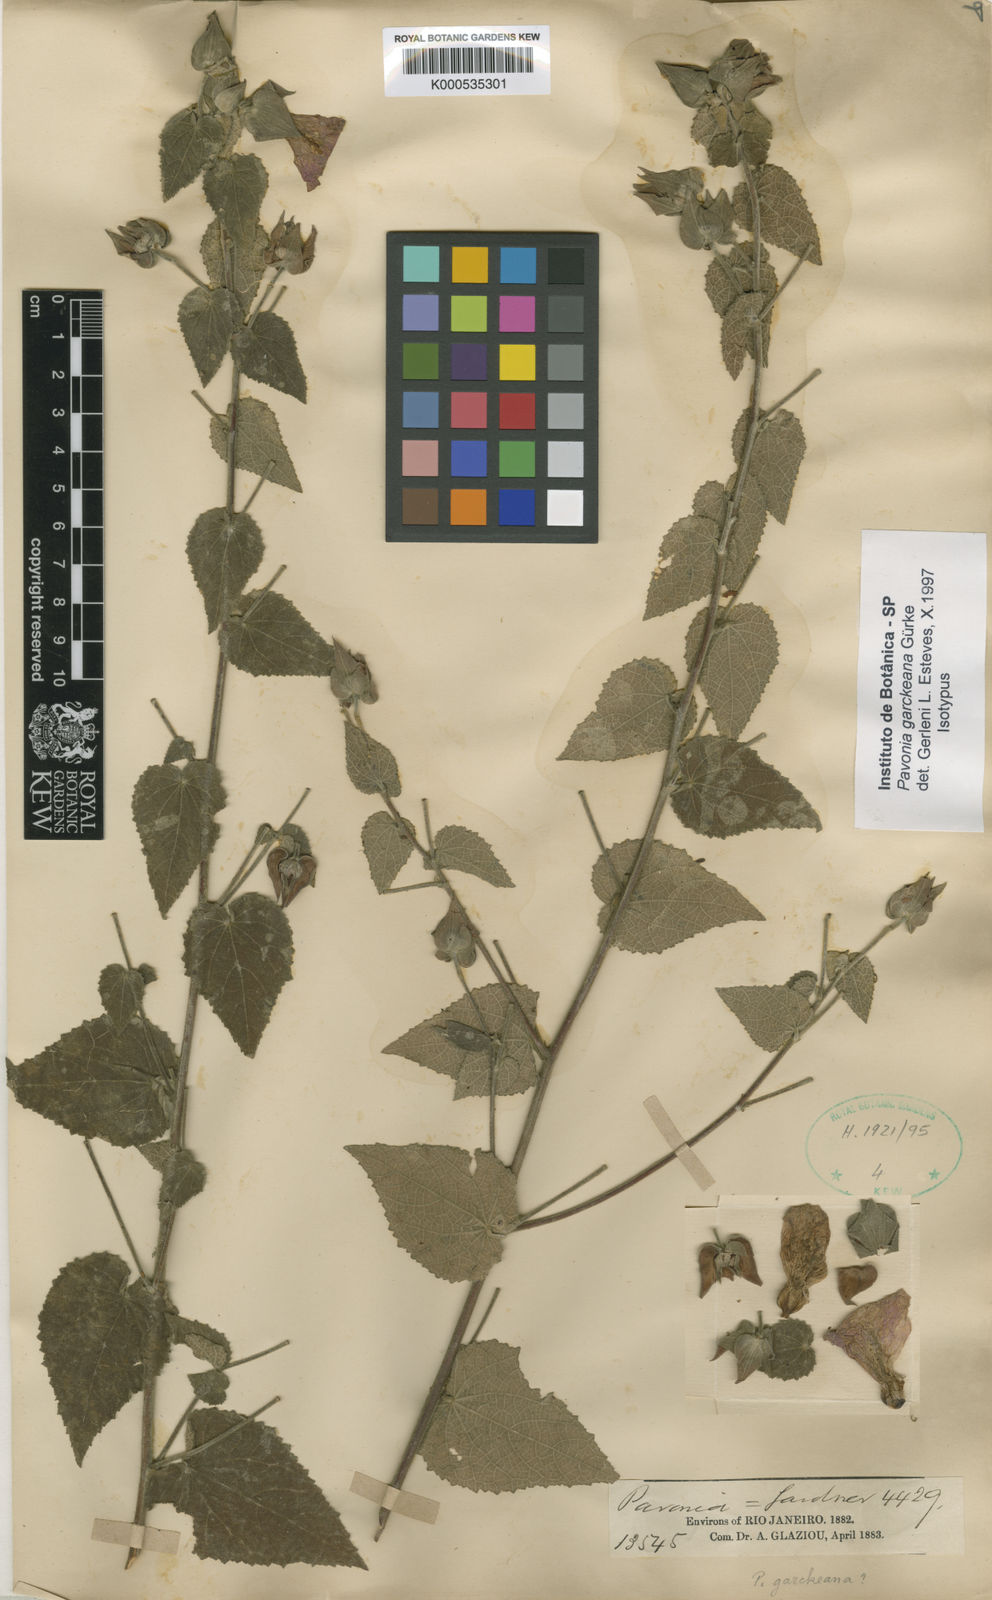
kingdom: Plantae
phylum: Tracheophyta
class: Magnoliopsida
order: Malvales
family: Malvaceae
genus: Pavonia
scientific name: Pavonia
